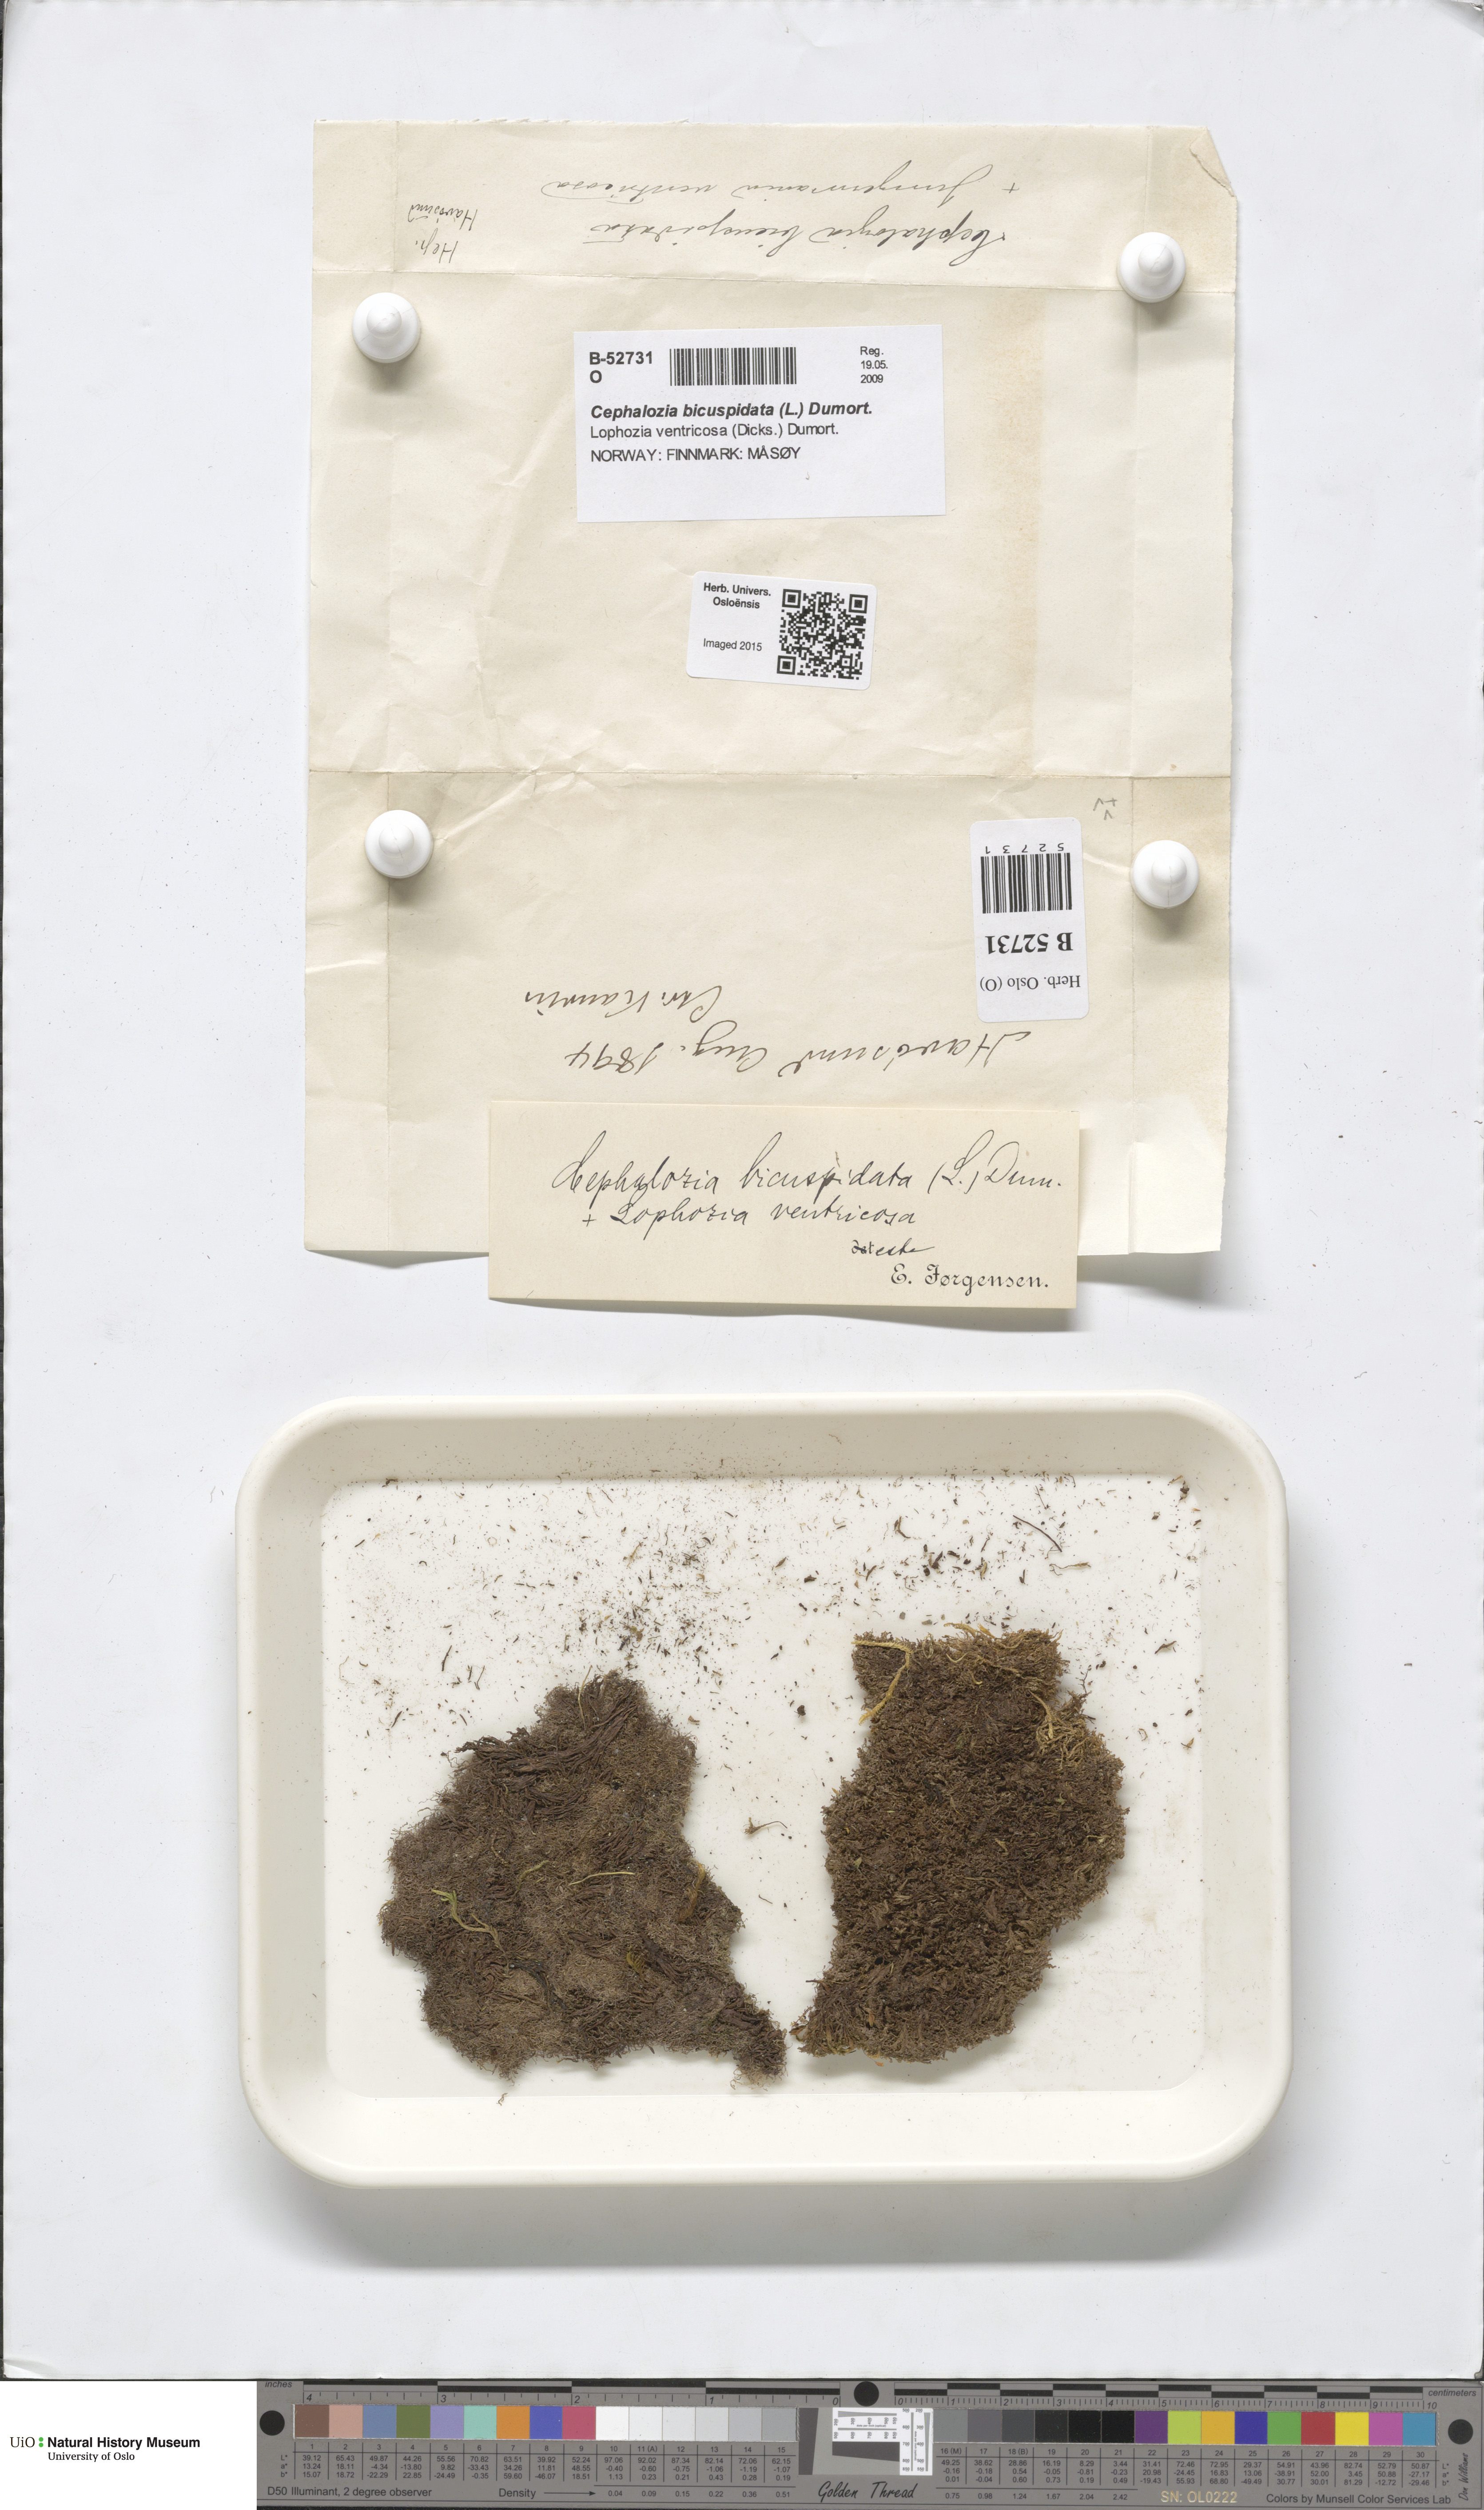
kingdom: Plantae
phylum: Marchantiophyta
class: Jungermanniopsida
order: Jungermanniales
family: Cephaloziellaceae
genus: Cephaloziella
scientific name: Cephaloziella divaricata
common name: Spreading threadwort
